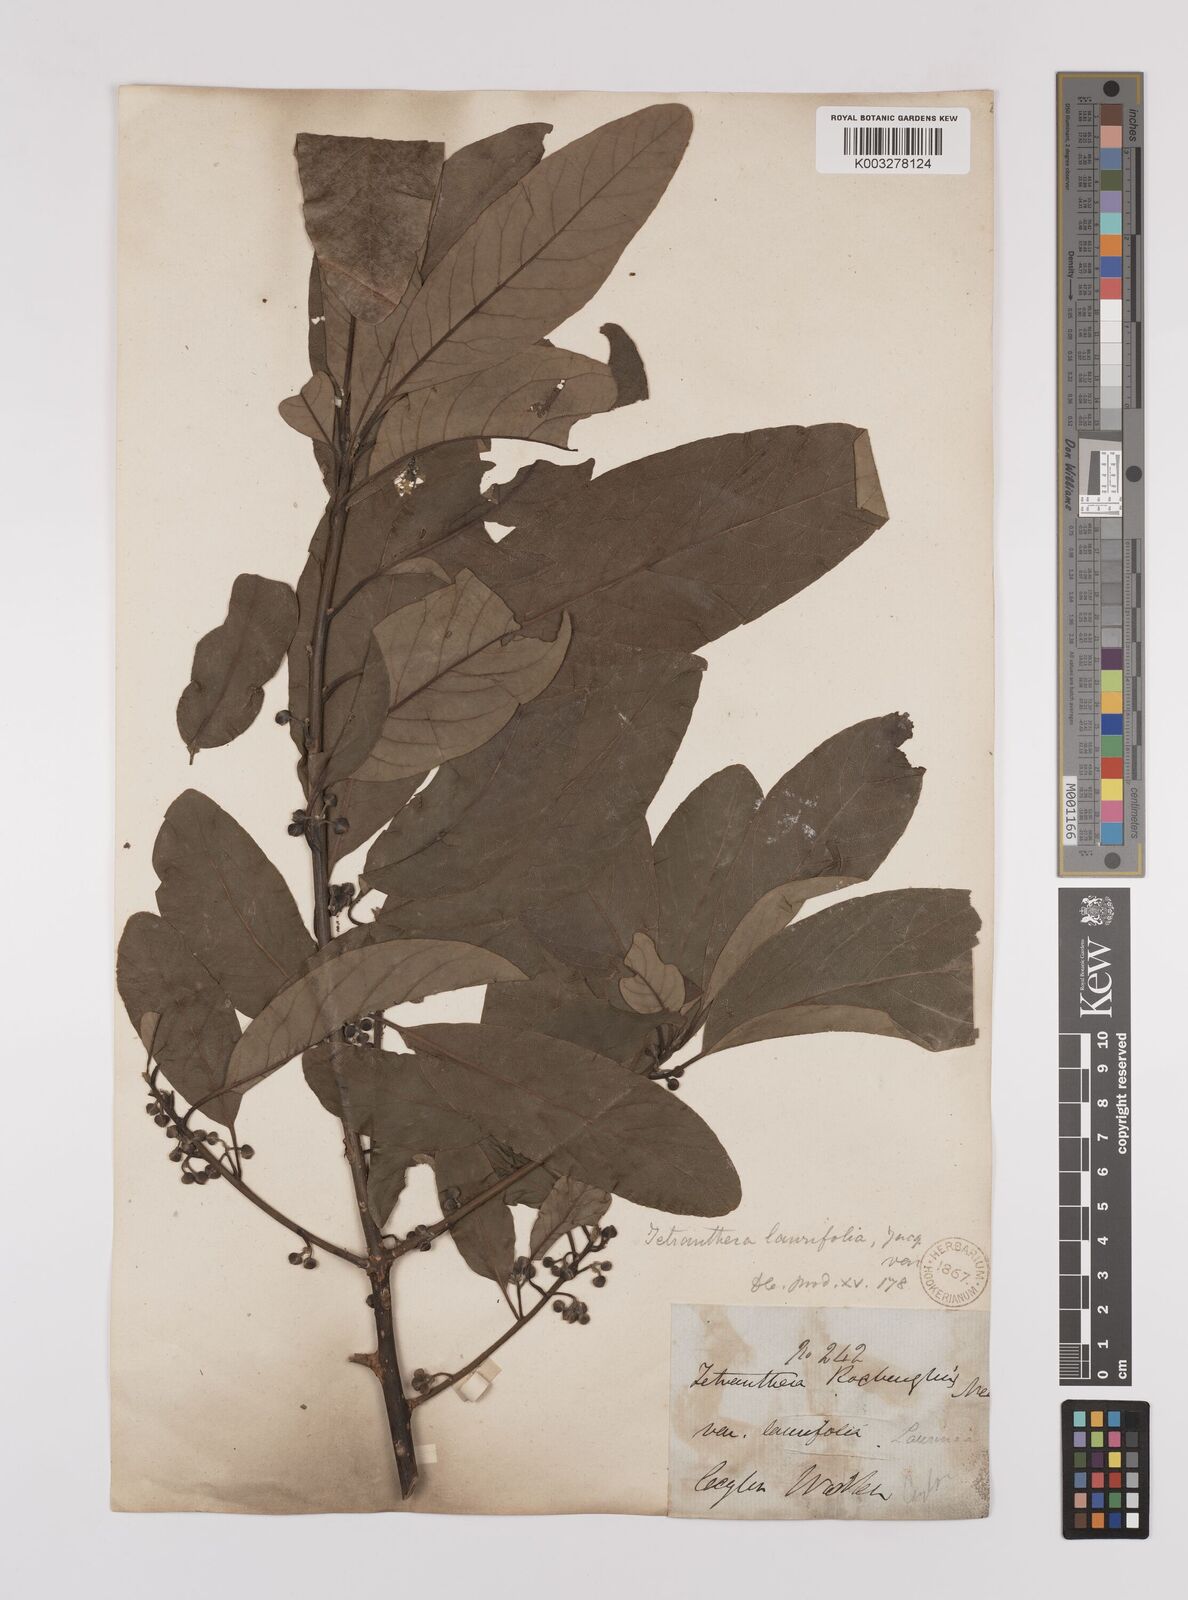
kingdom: Plantae
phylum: Tracheophyta
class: Magnoliopsida
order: Laurales
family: Lauraceae
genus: Litsea
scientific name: Litsea
